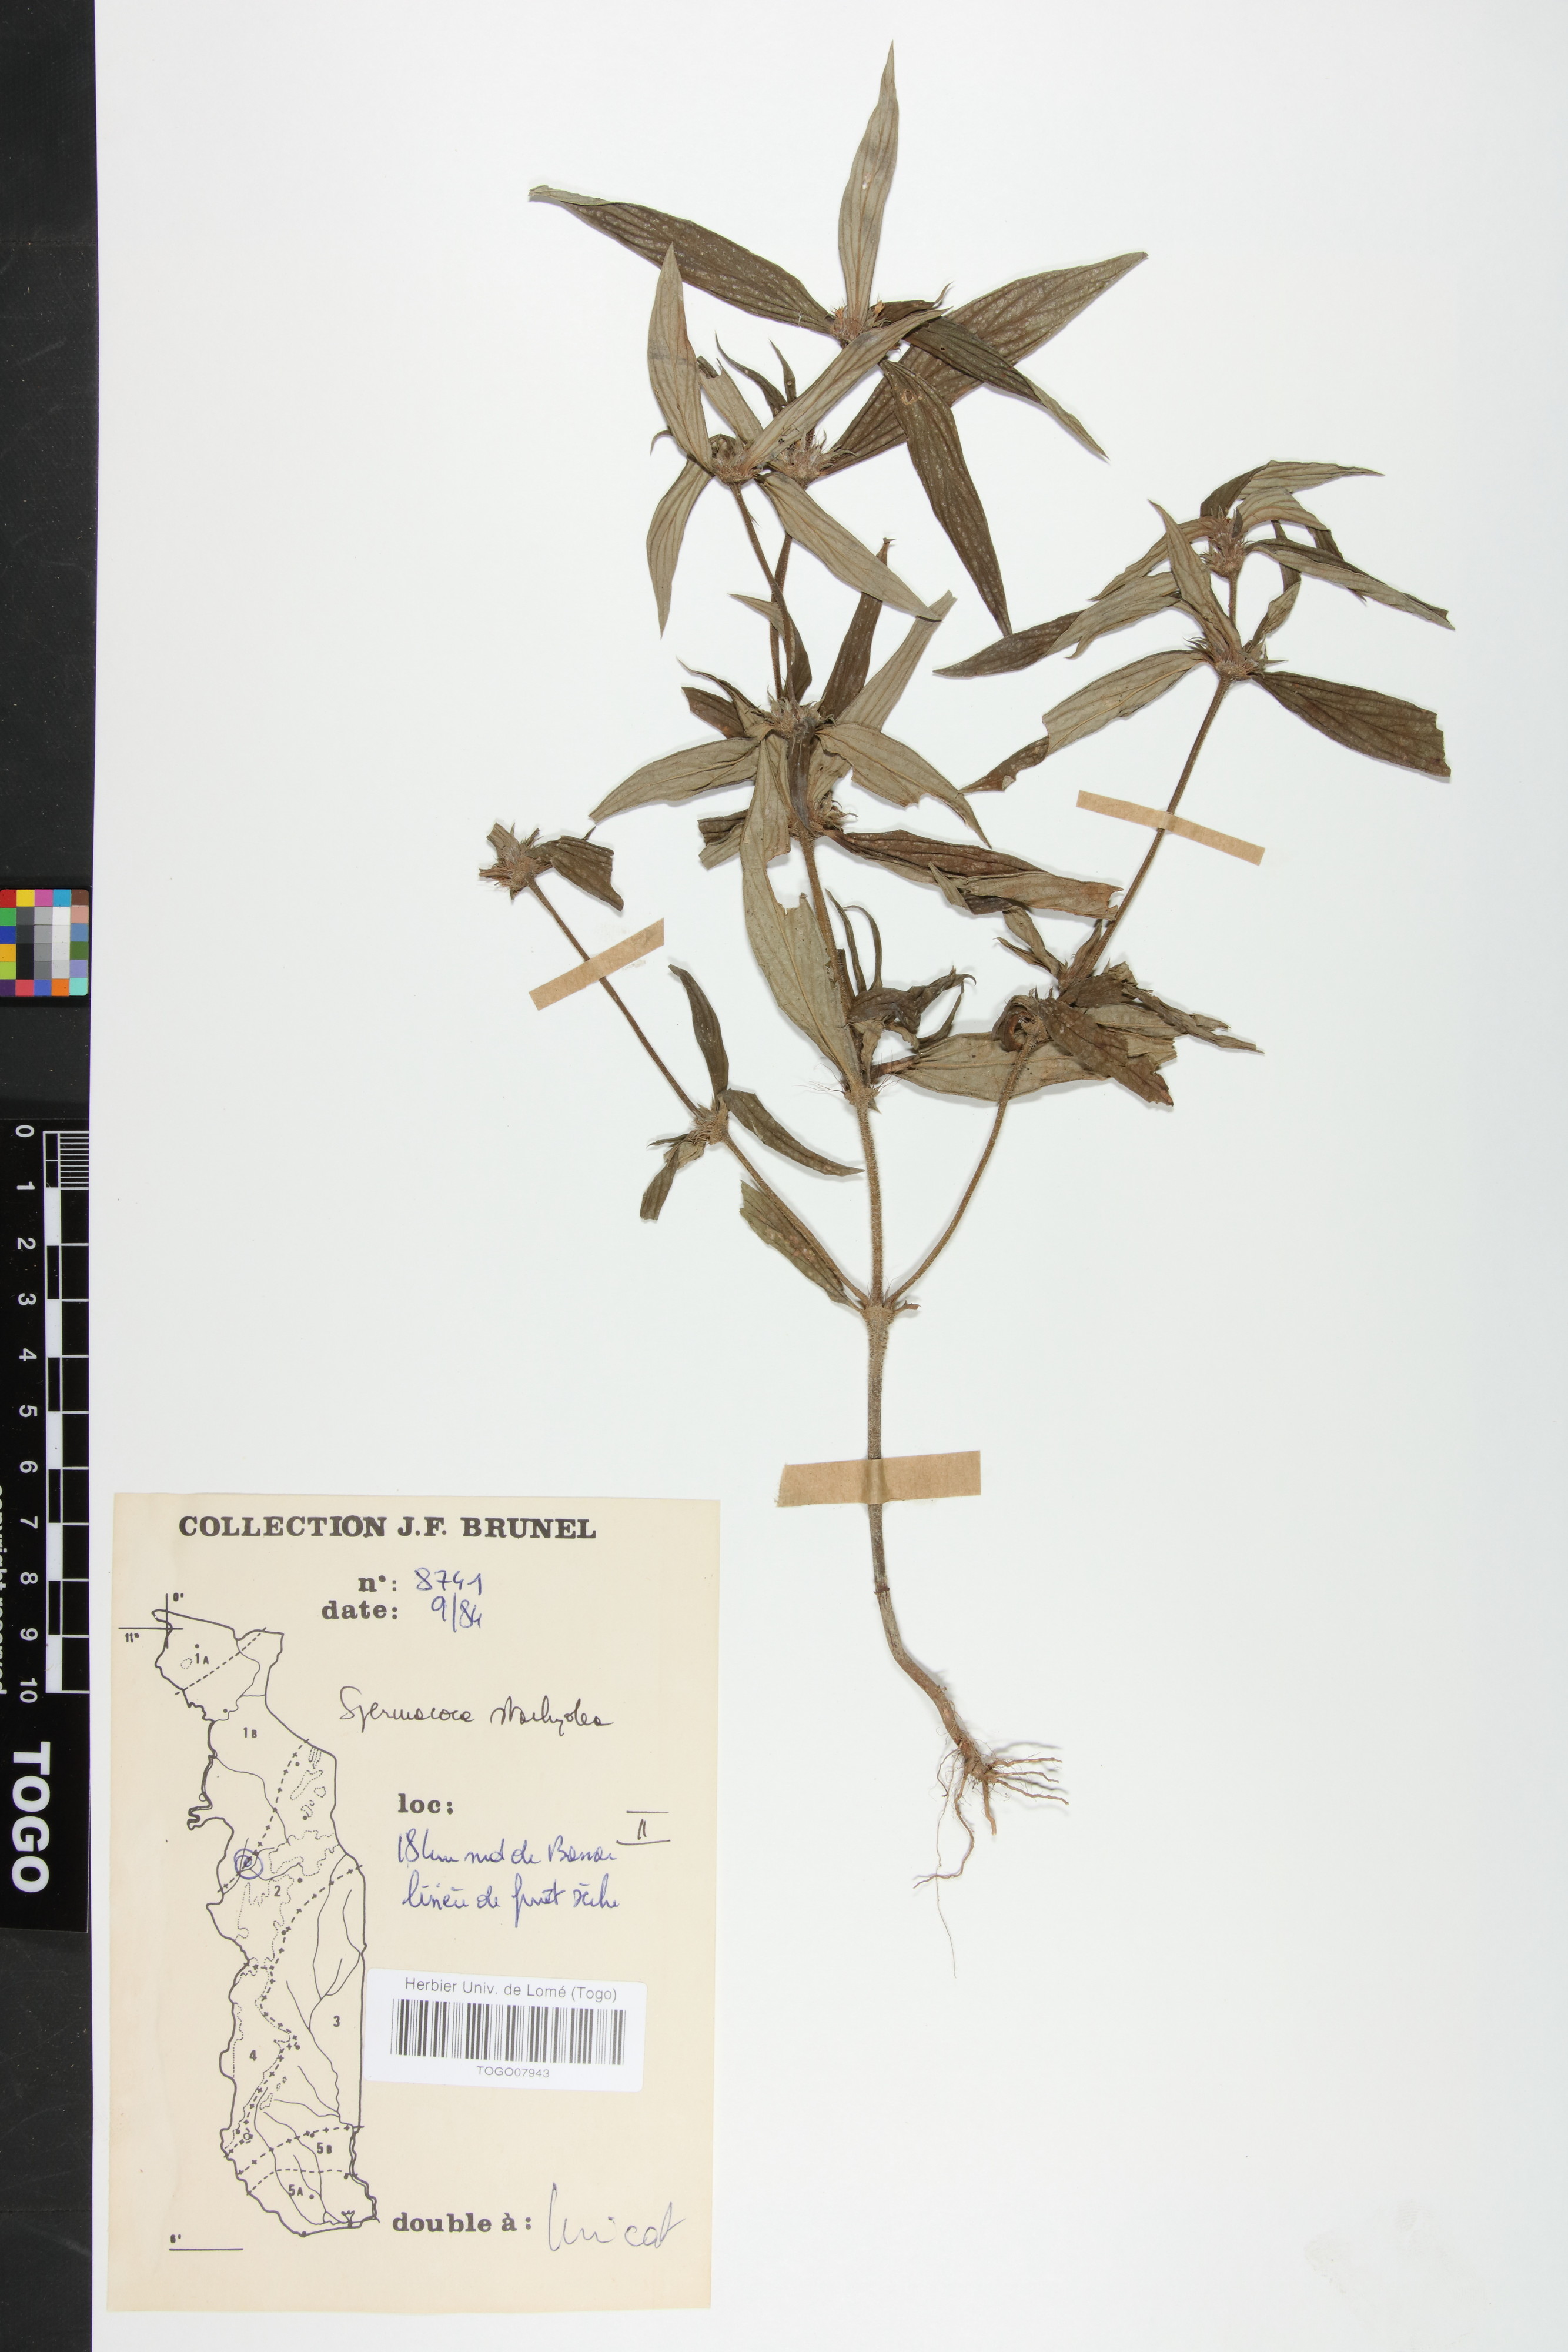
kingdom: Plantae
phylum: Tracheophyta
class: Magnoliopsida
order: Gentianales
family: Rubiaceae
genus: Spermacoce
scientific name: Spermacoce stachydea
